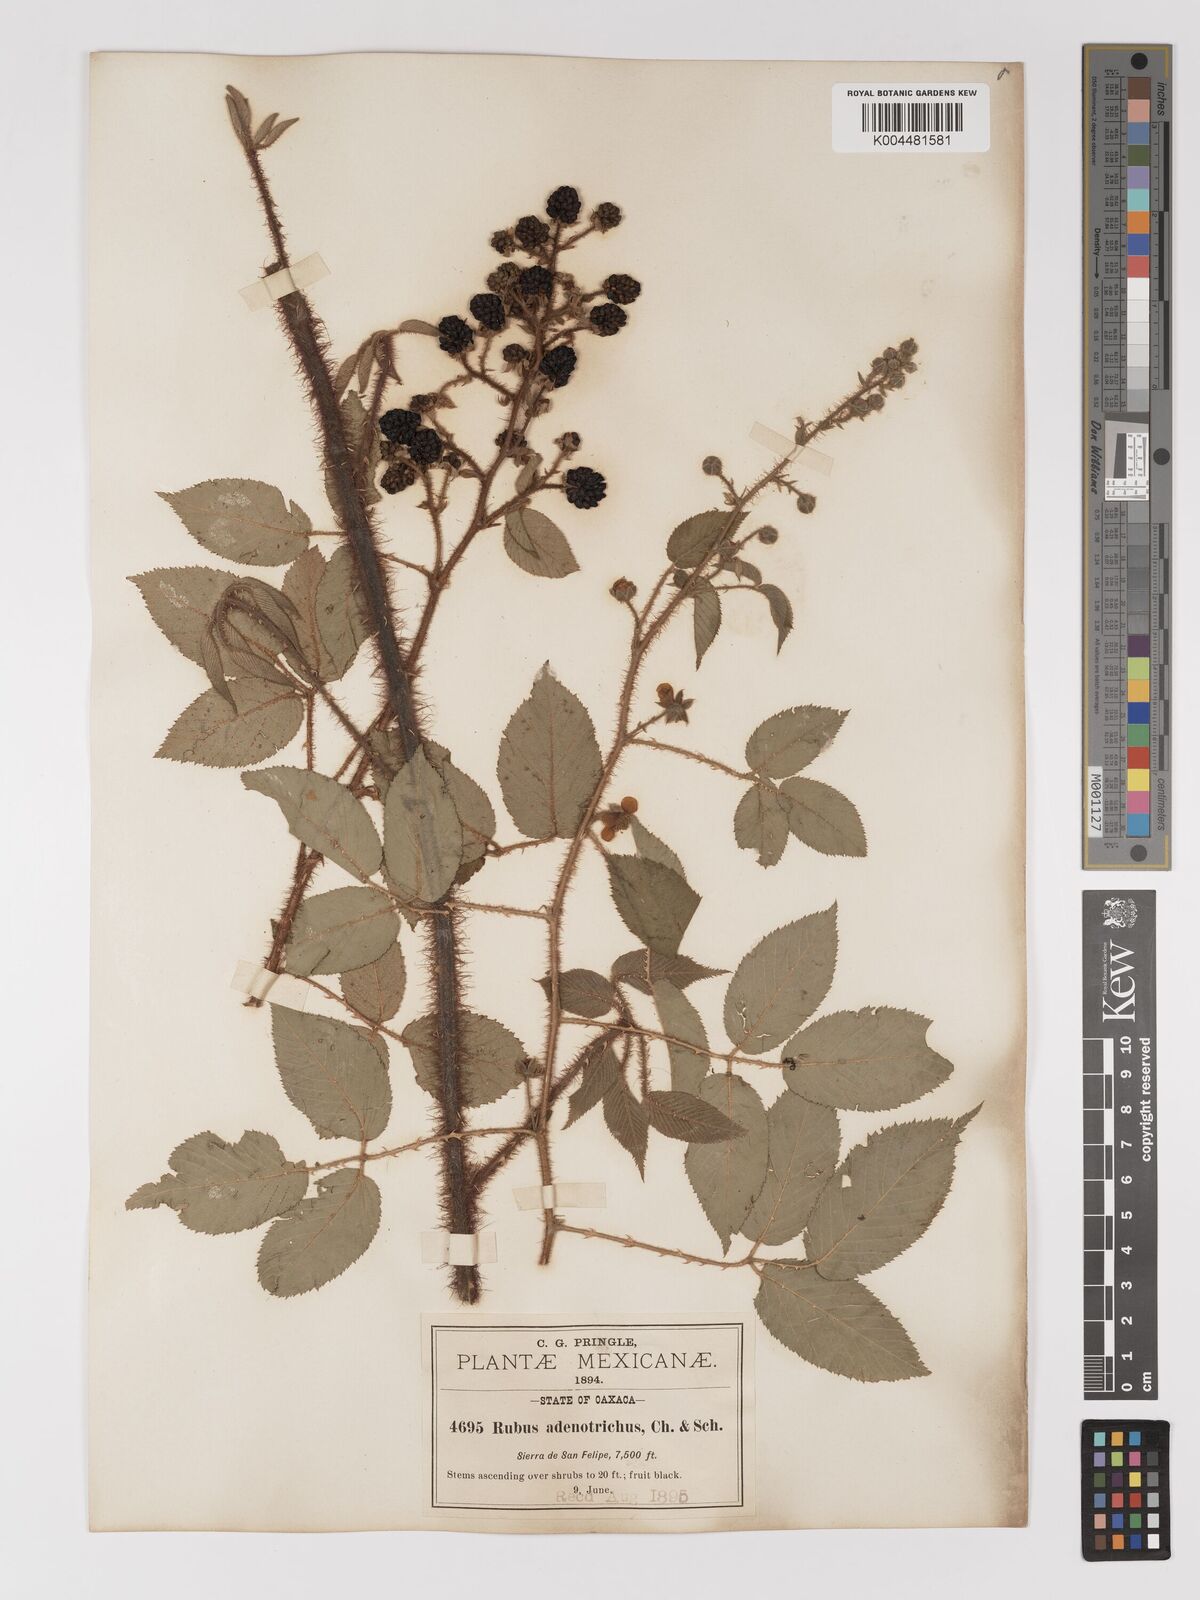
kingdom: Plantae
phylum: Tracheophyta
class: Magnoliopsida
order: Rosales
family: Rosaceae
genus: Rubus
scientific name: Rubus adenotrichos
